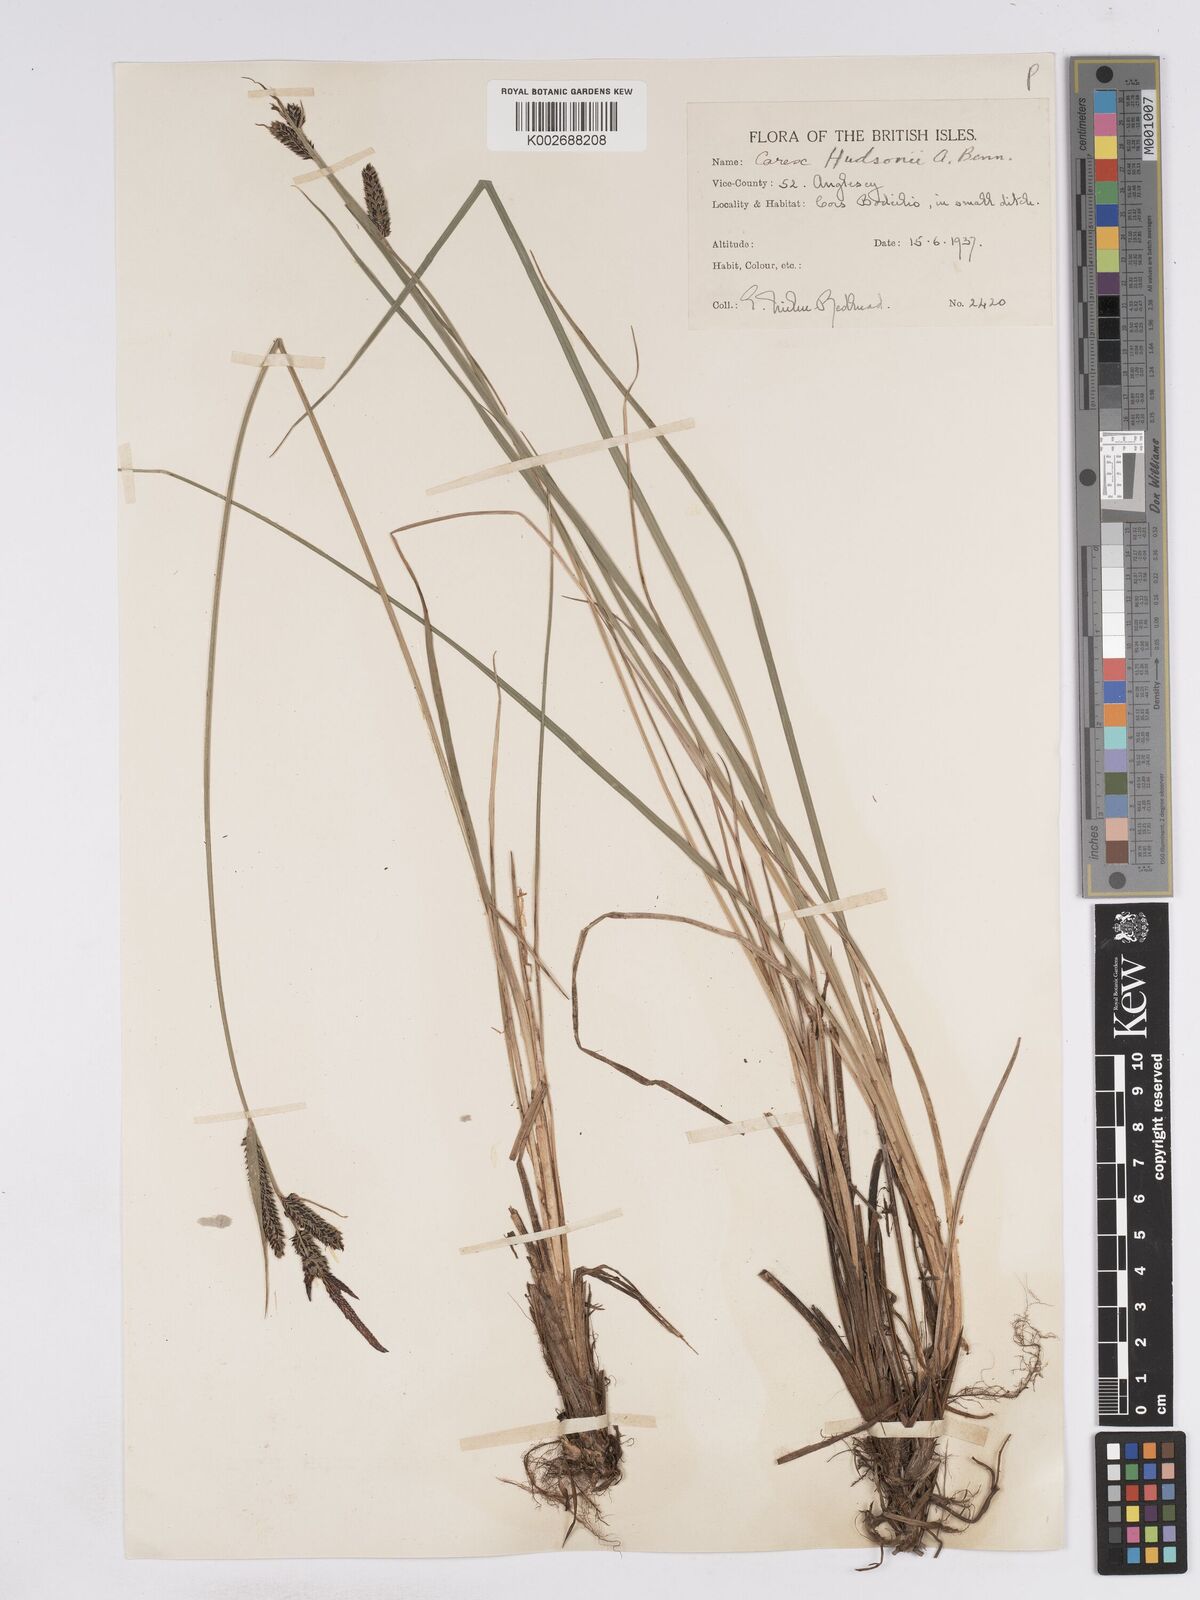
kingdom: Plantae
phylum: Tracheophyta
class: Liliopsida
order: Poales
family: Cyperaceae
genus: Carex
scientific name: Carex elata
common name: Tufted sedge
